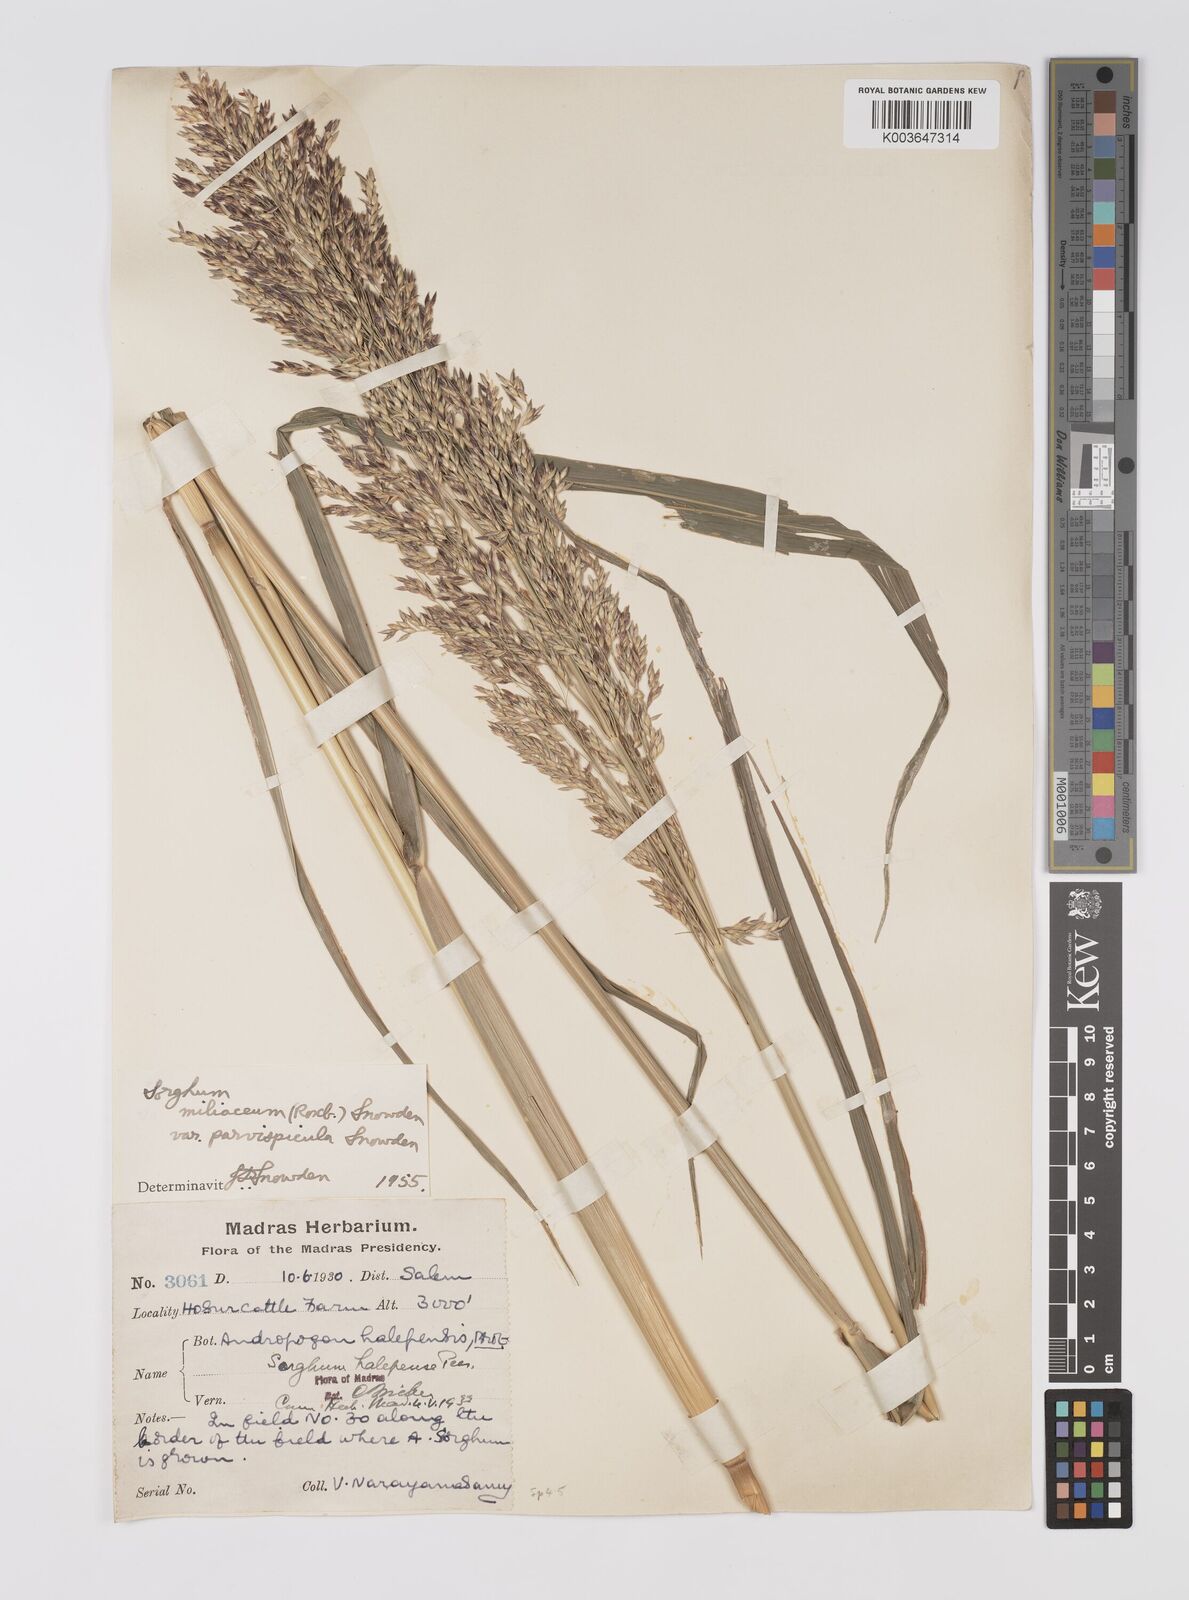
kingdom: Plantae
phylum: Tracheophyta
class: Liliopsida
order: Poales
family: Poaceae
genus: Sorghum
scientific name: Sorghum halepense
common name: Johnson-grass
